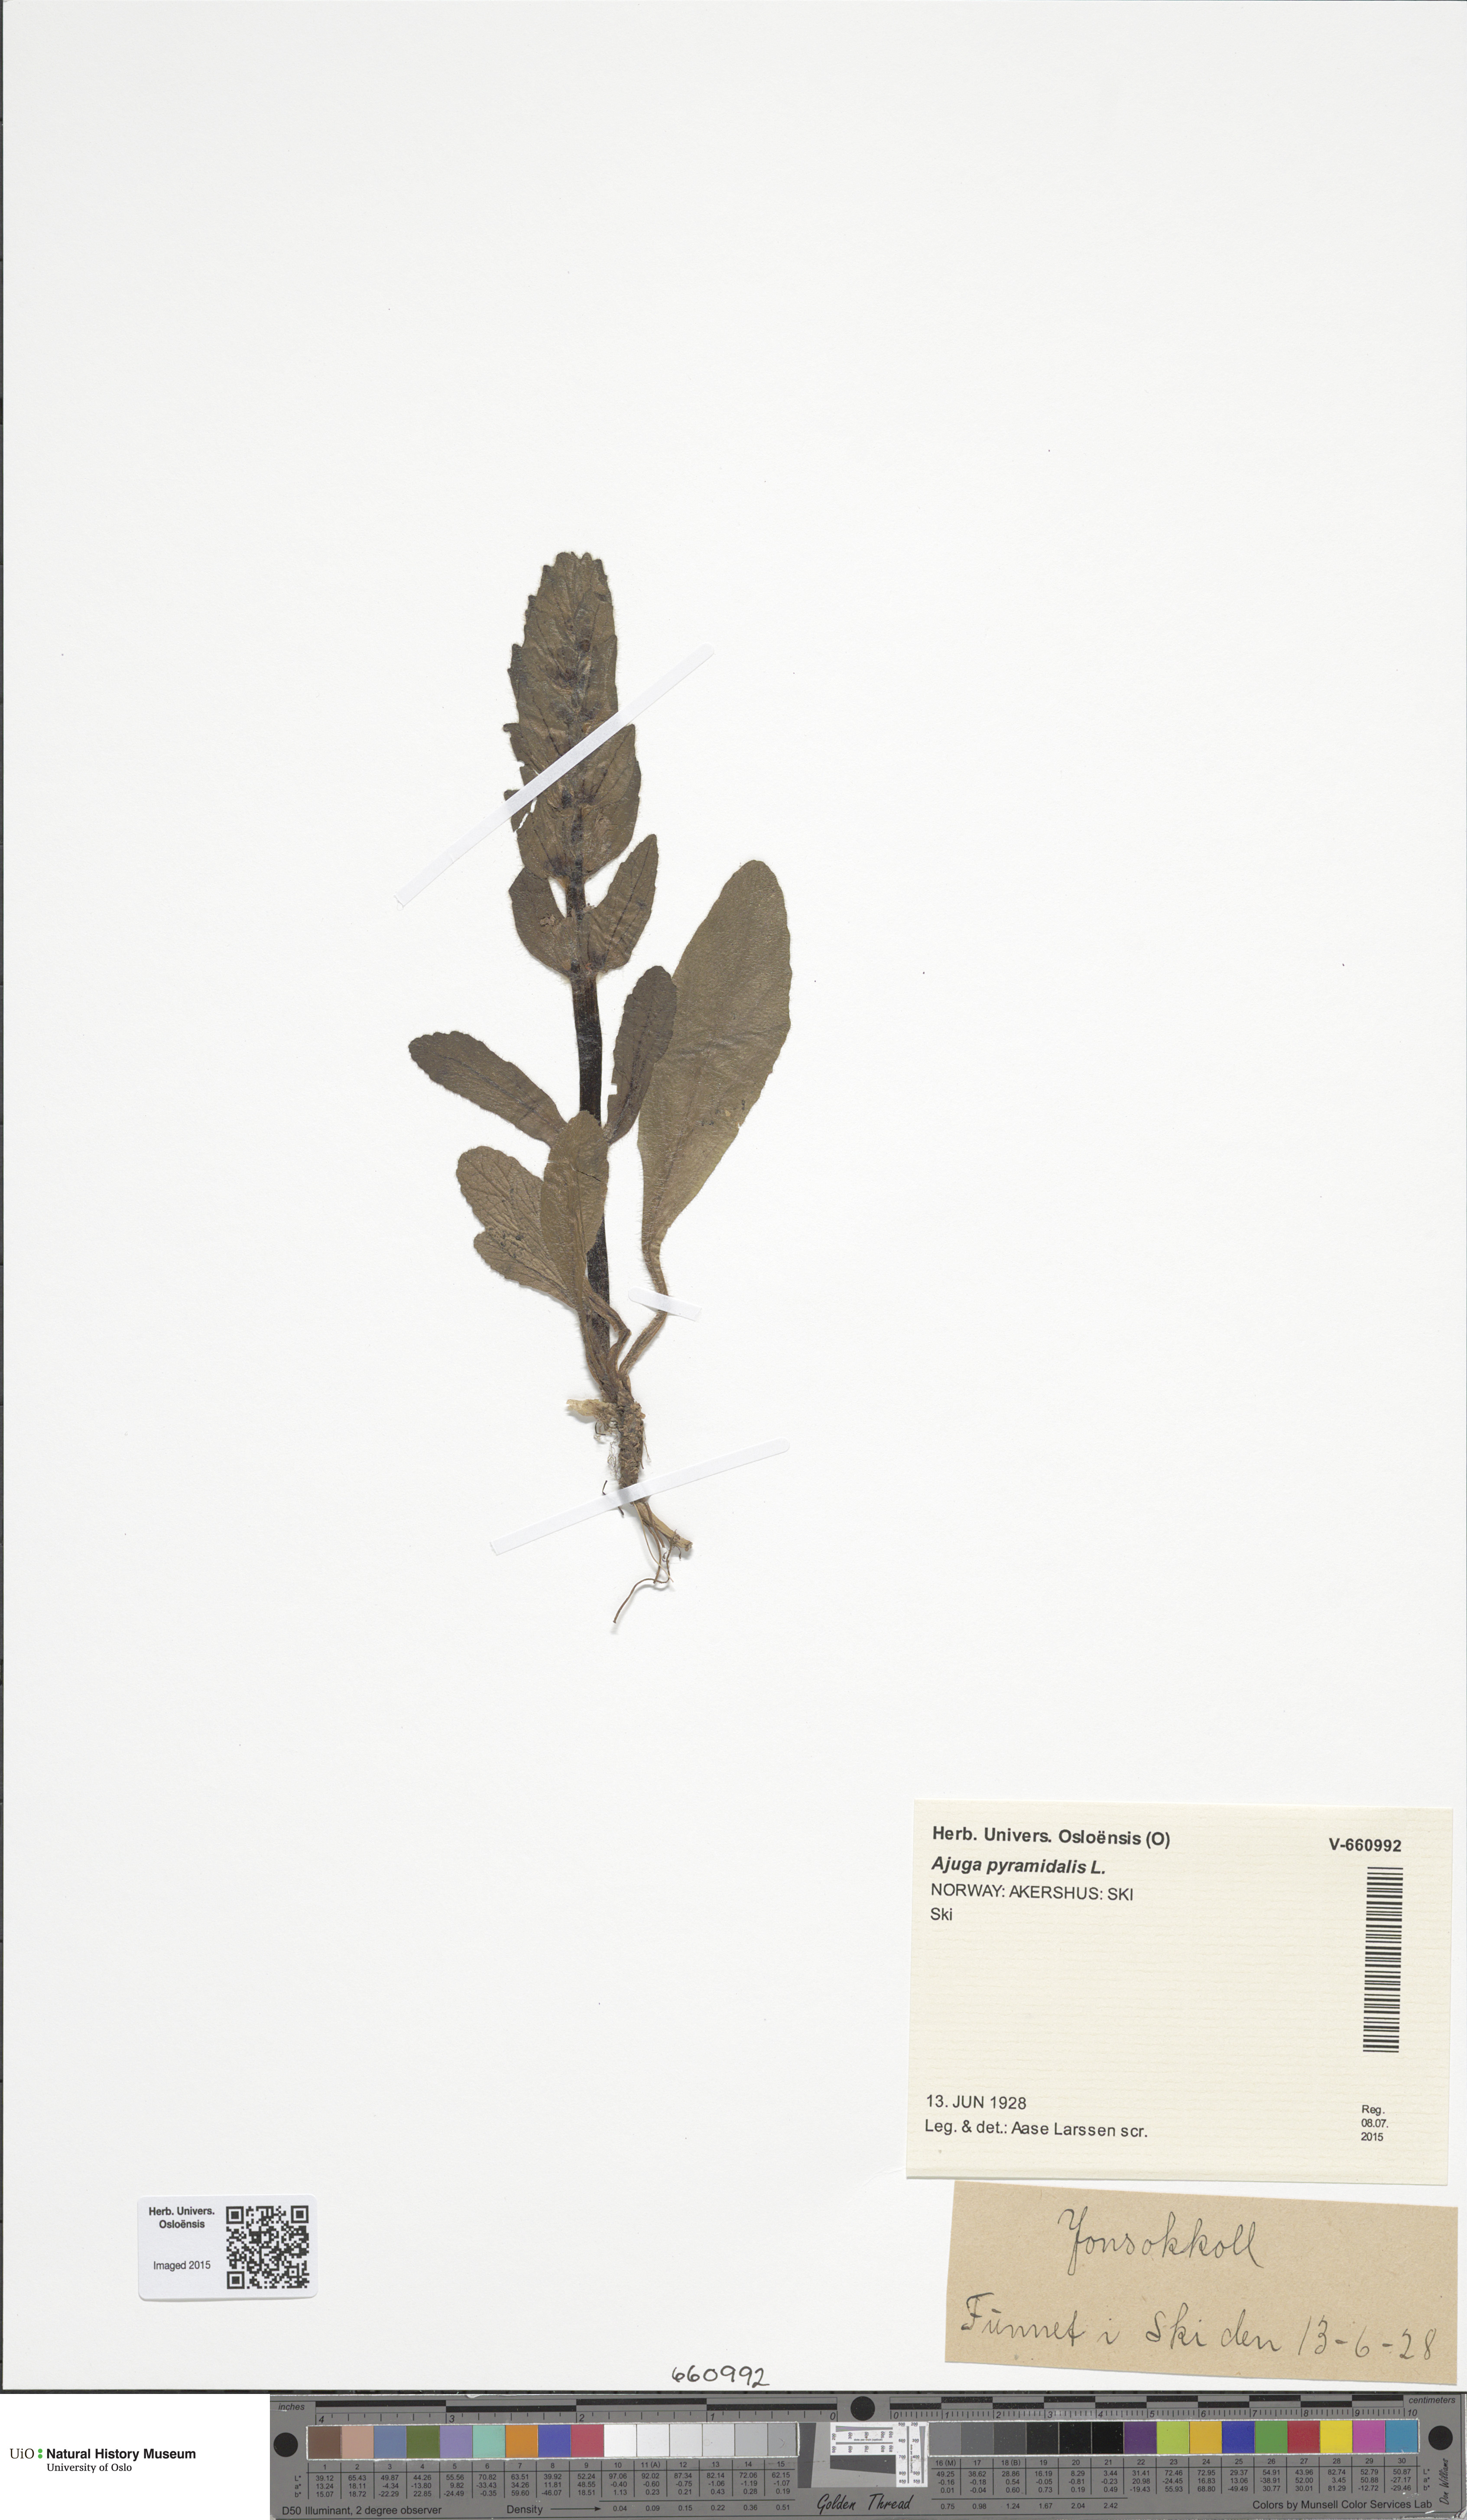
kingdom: Plantae
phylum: Tracheophyta
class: Magnoliopsida
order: Lamiales
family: Lamiaceae
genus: Ajuga
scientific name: Ajuga pyramidalis
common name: Pyramid bugle
